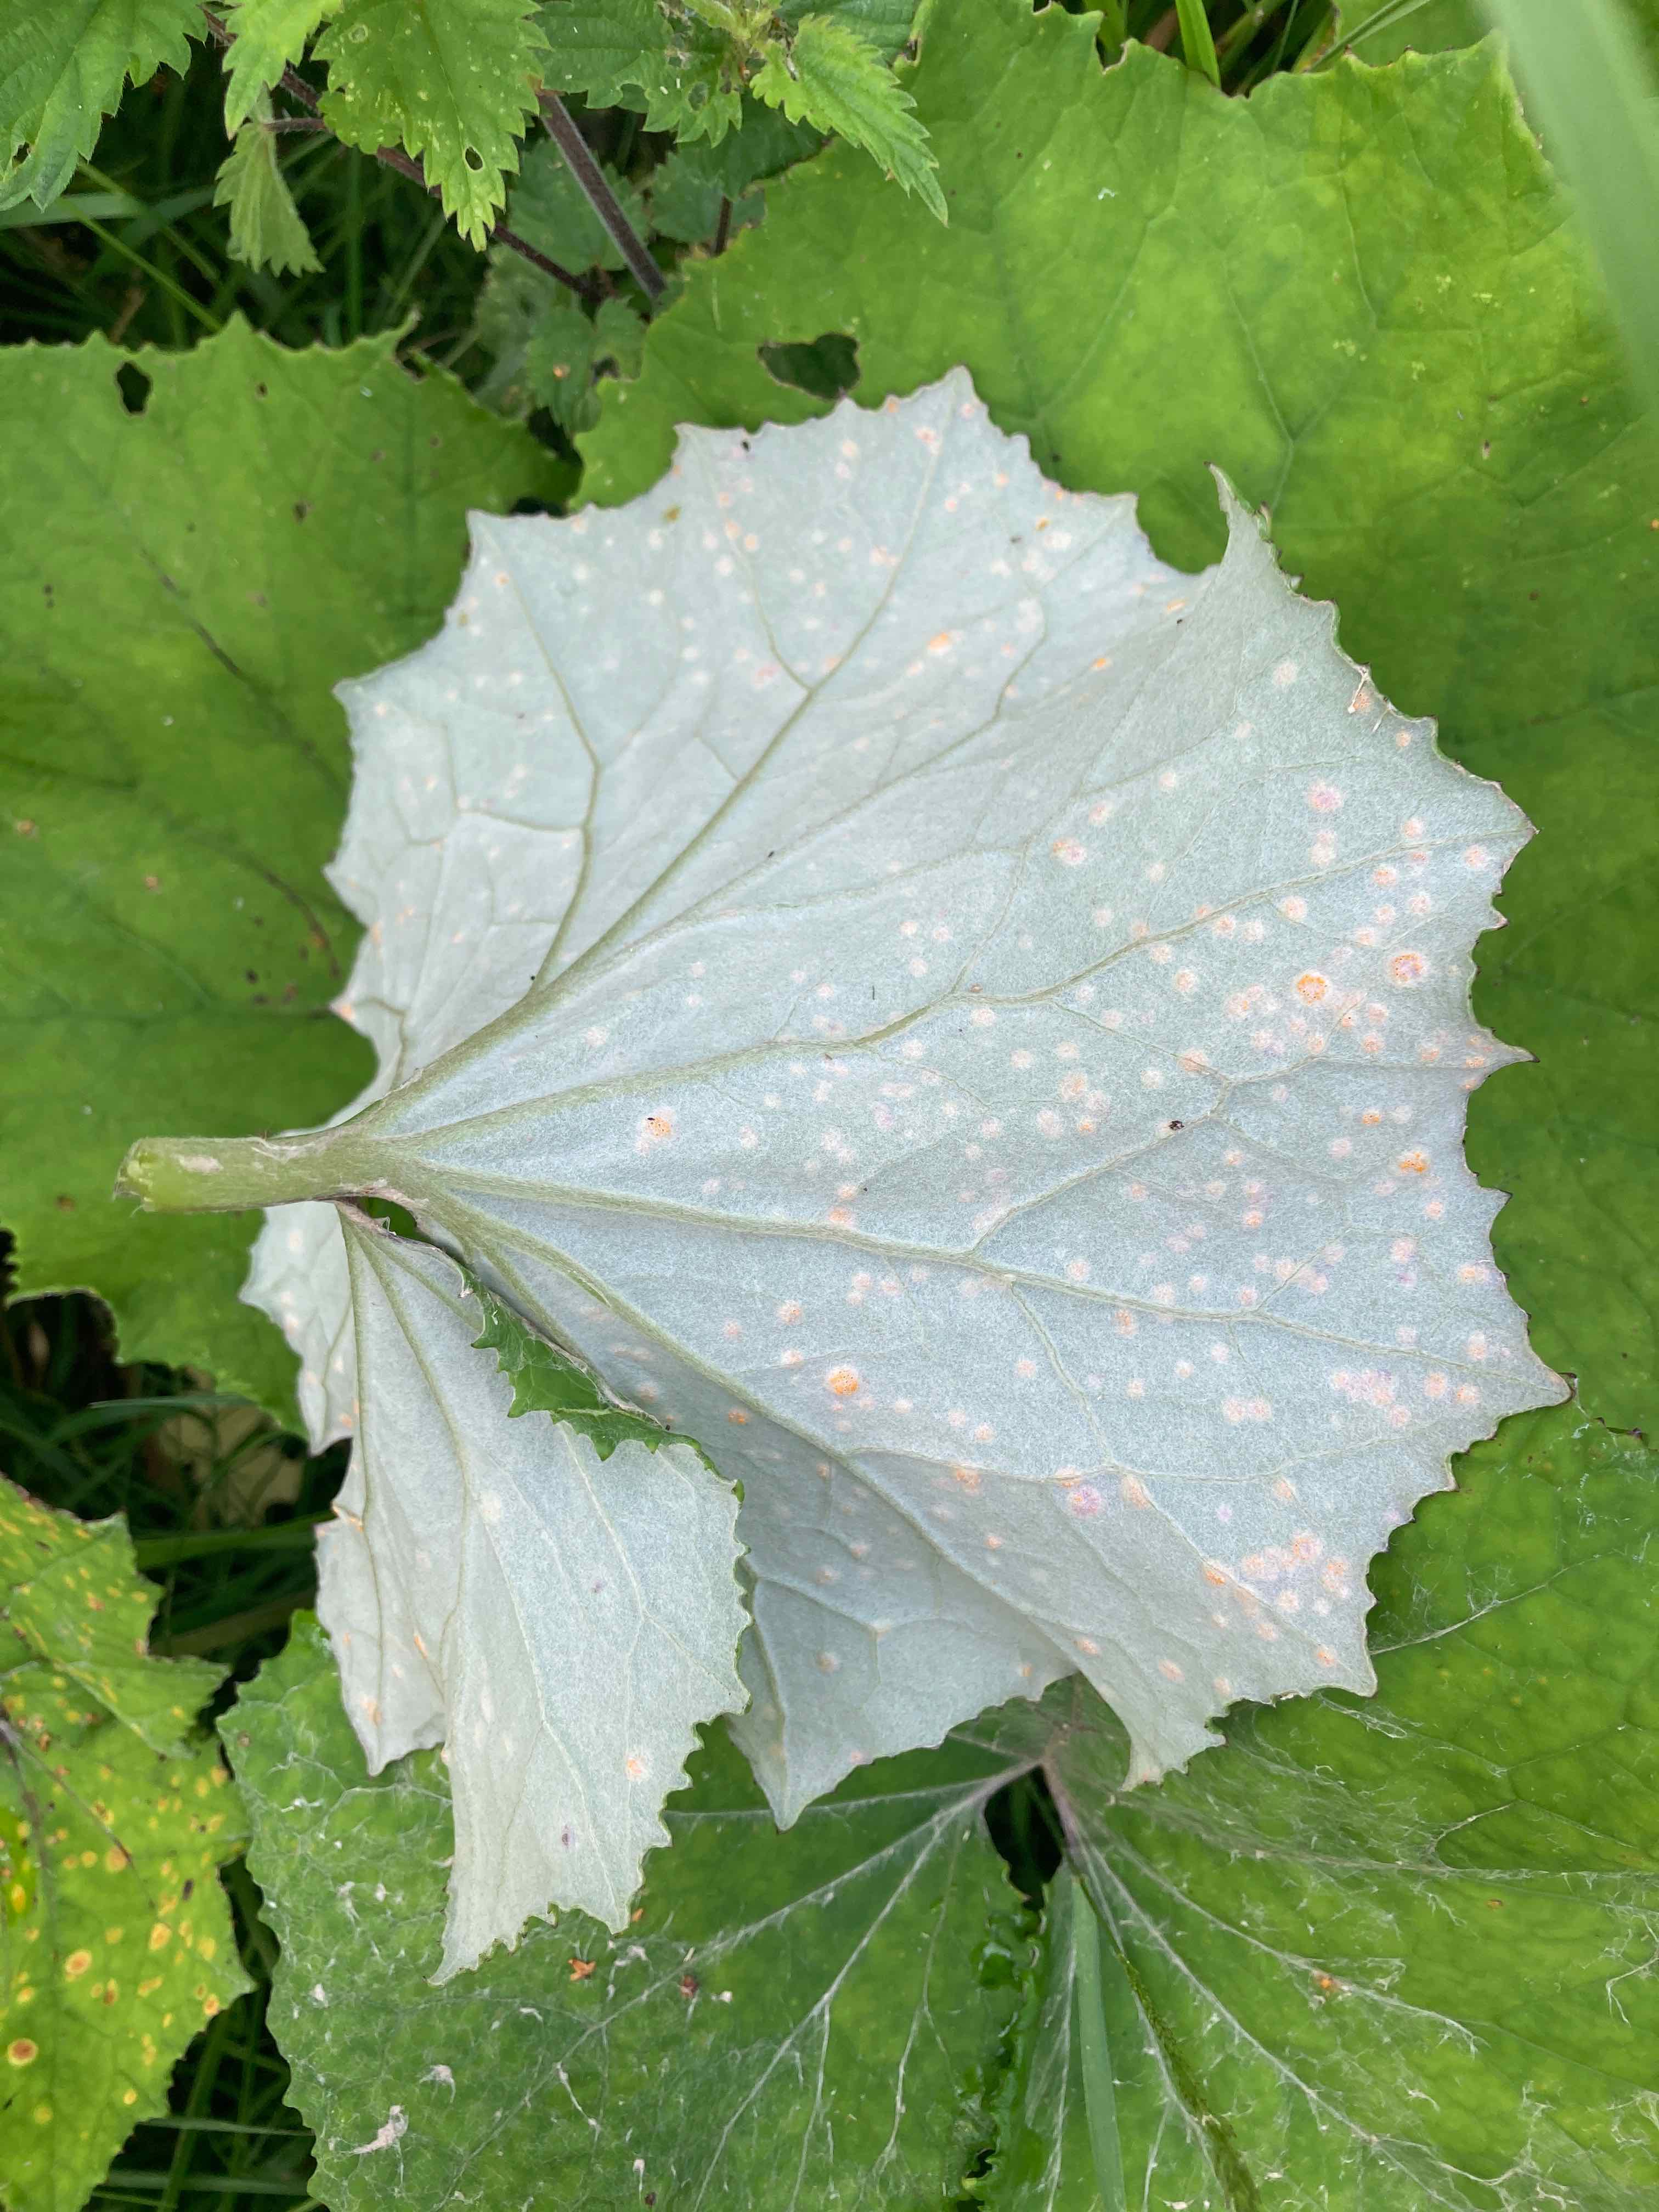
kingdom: Fungi
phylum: Basidiomycota
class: Pucciniomycetes
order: Pucciniales
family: Coleosporiaceae
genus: Coleosporium
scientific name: Coleosporium tussilaginis
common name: almindelig fyrrenålerust
